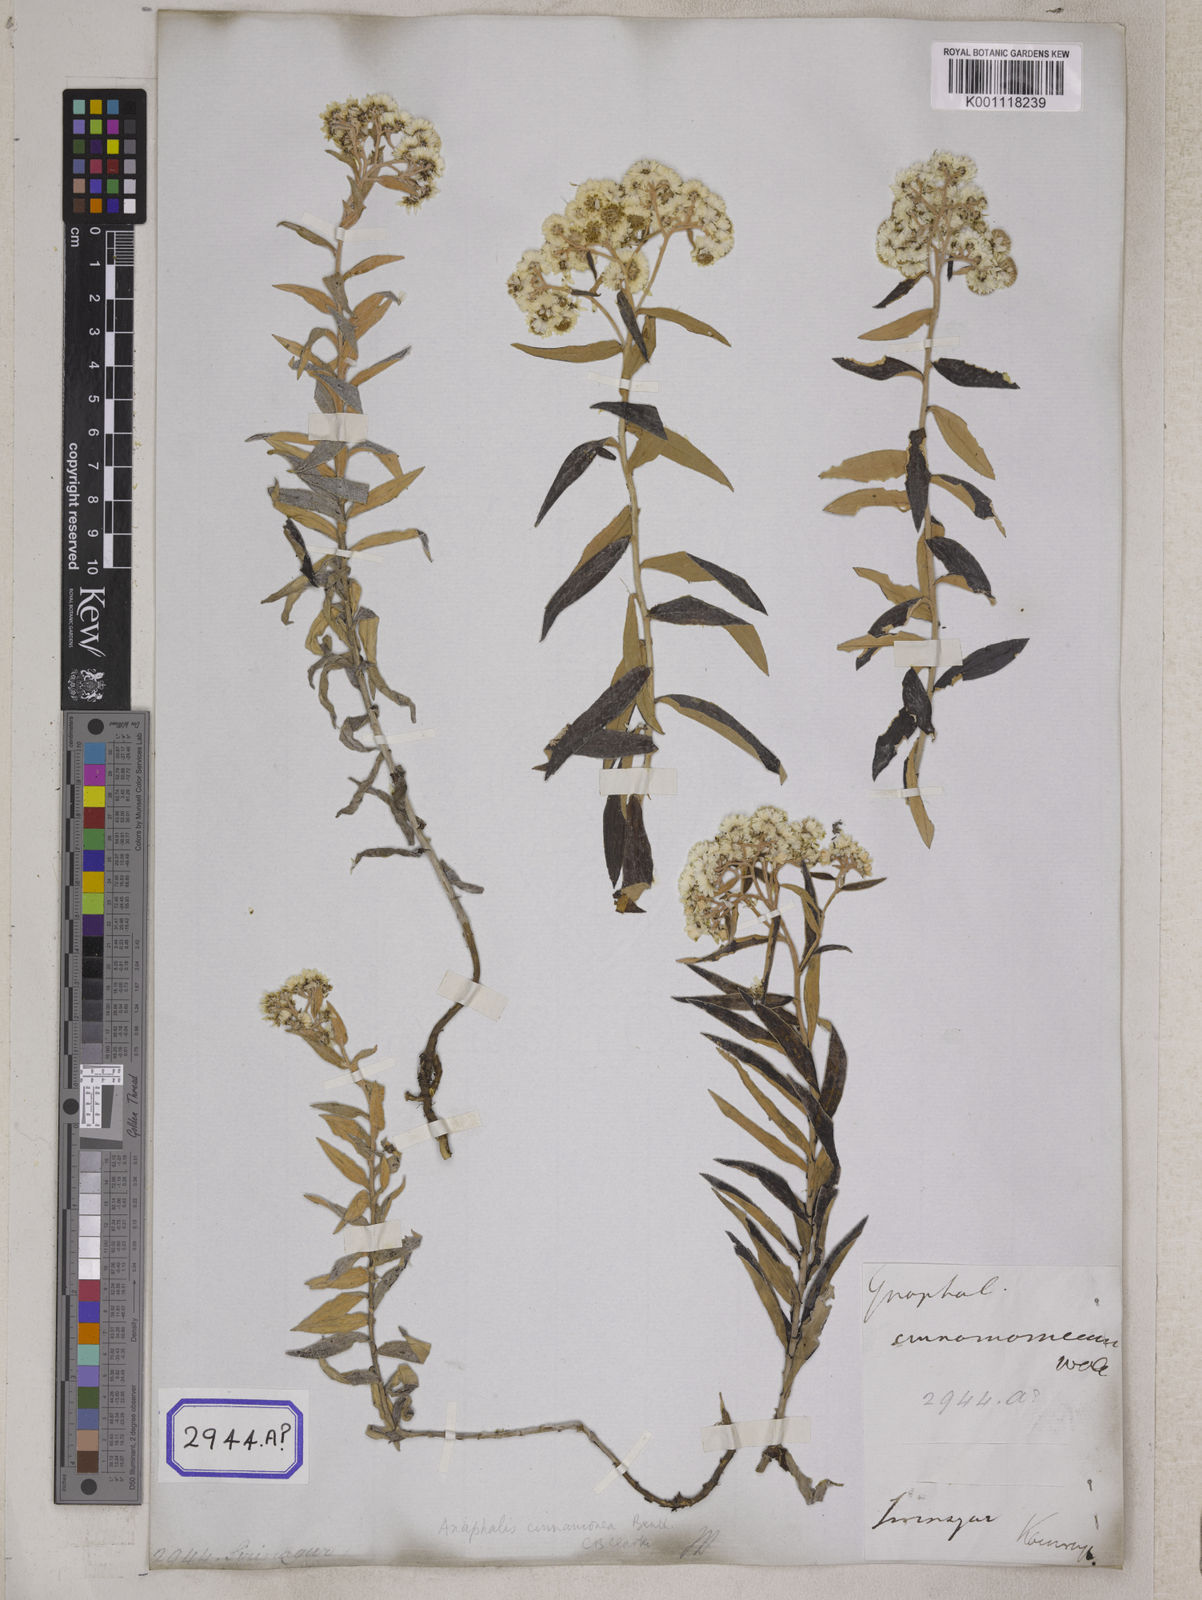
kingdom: Plantae
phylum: Tracheophyta
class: Magnoliopsida
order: Asterales
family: Asteraceae
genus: Anaphalis
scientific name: Anaphalis margaritacea
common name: Pearly everlasting
